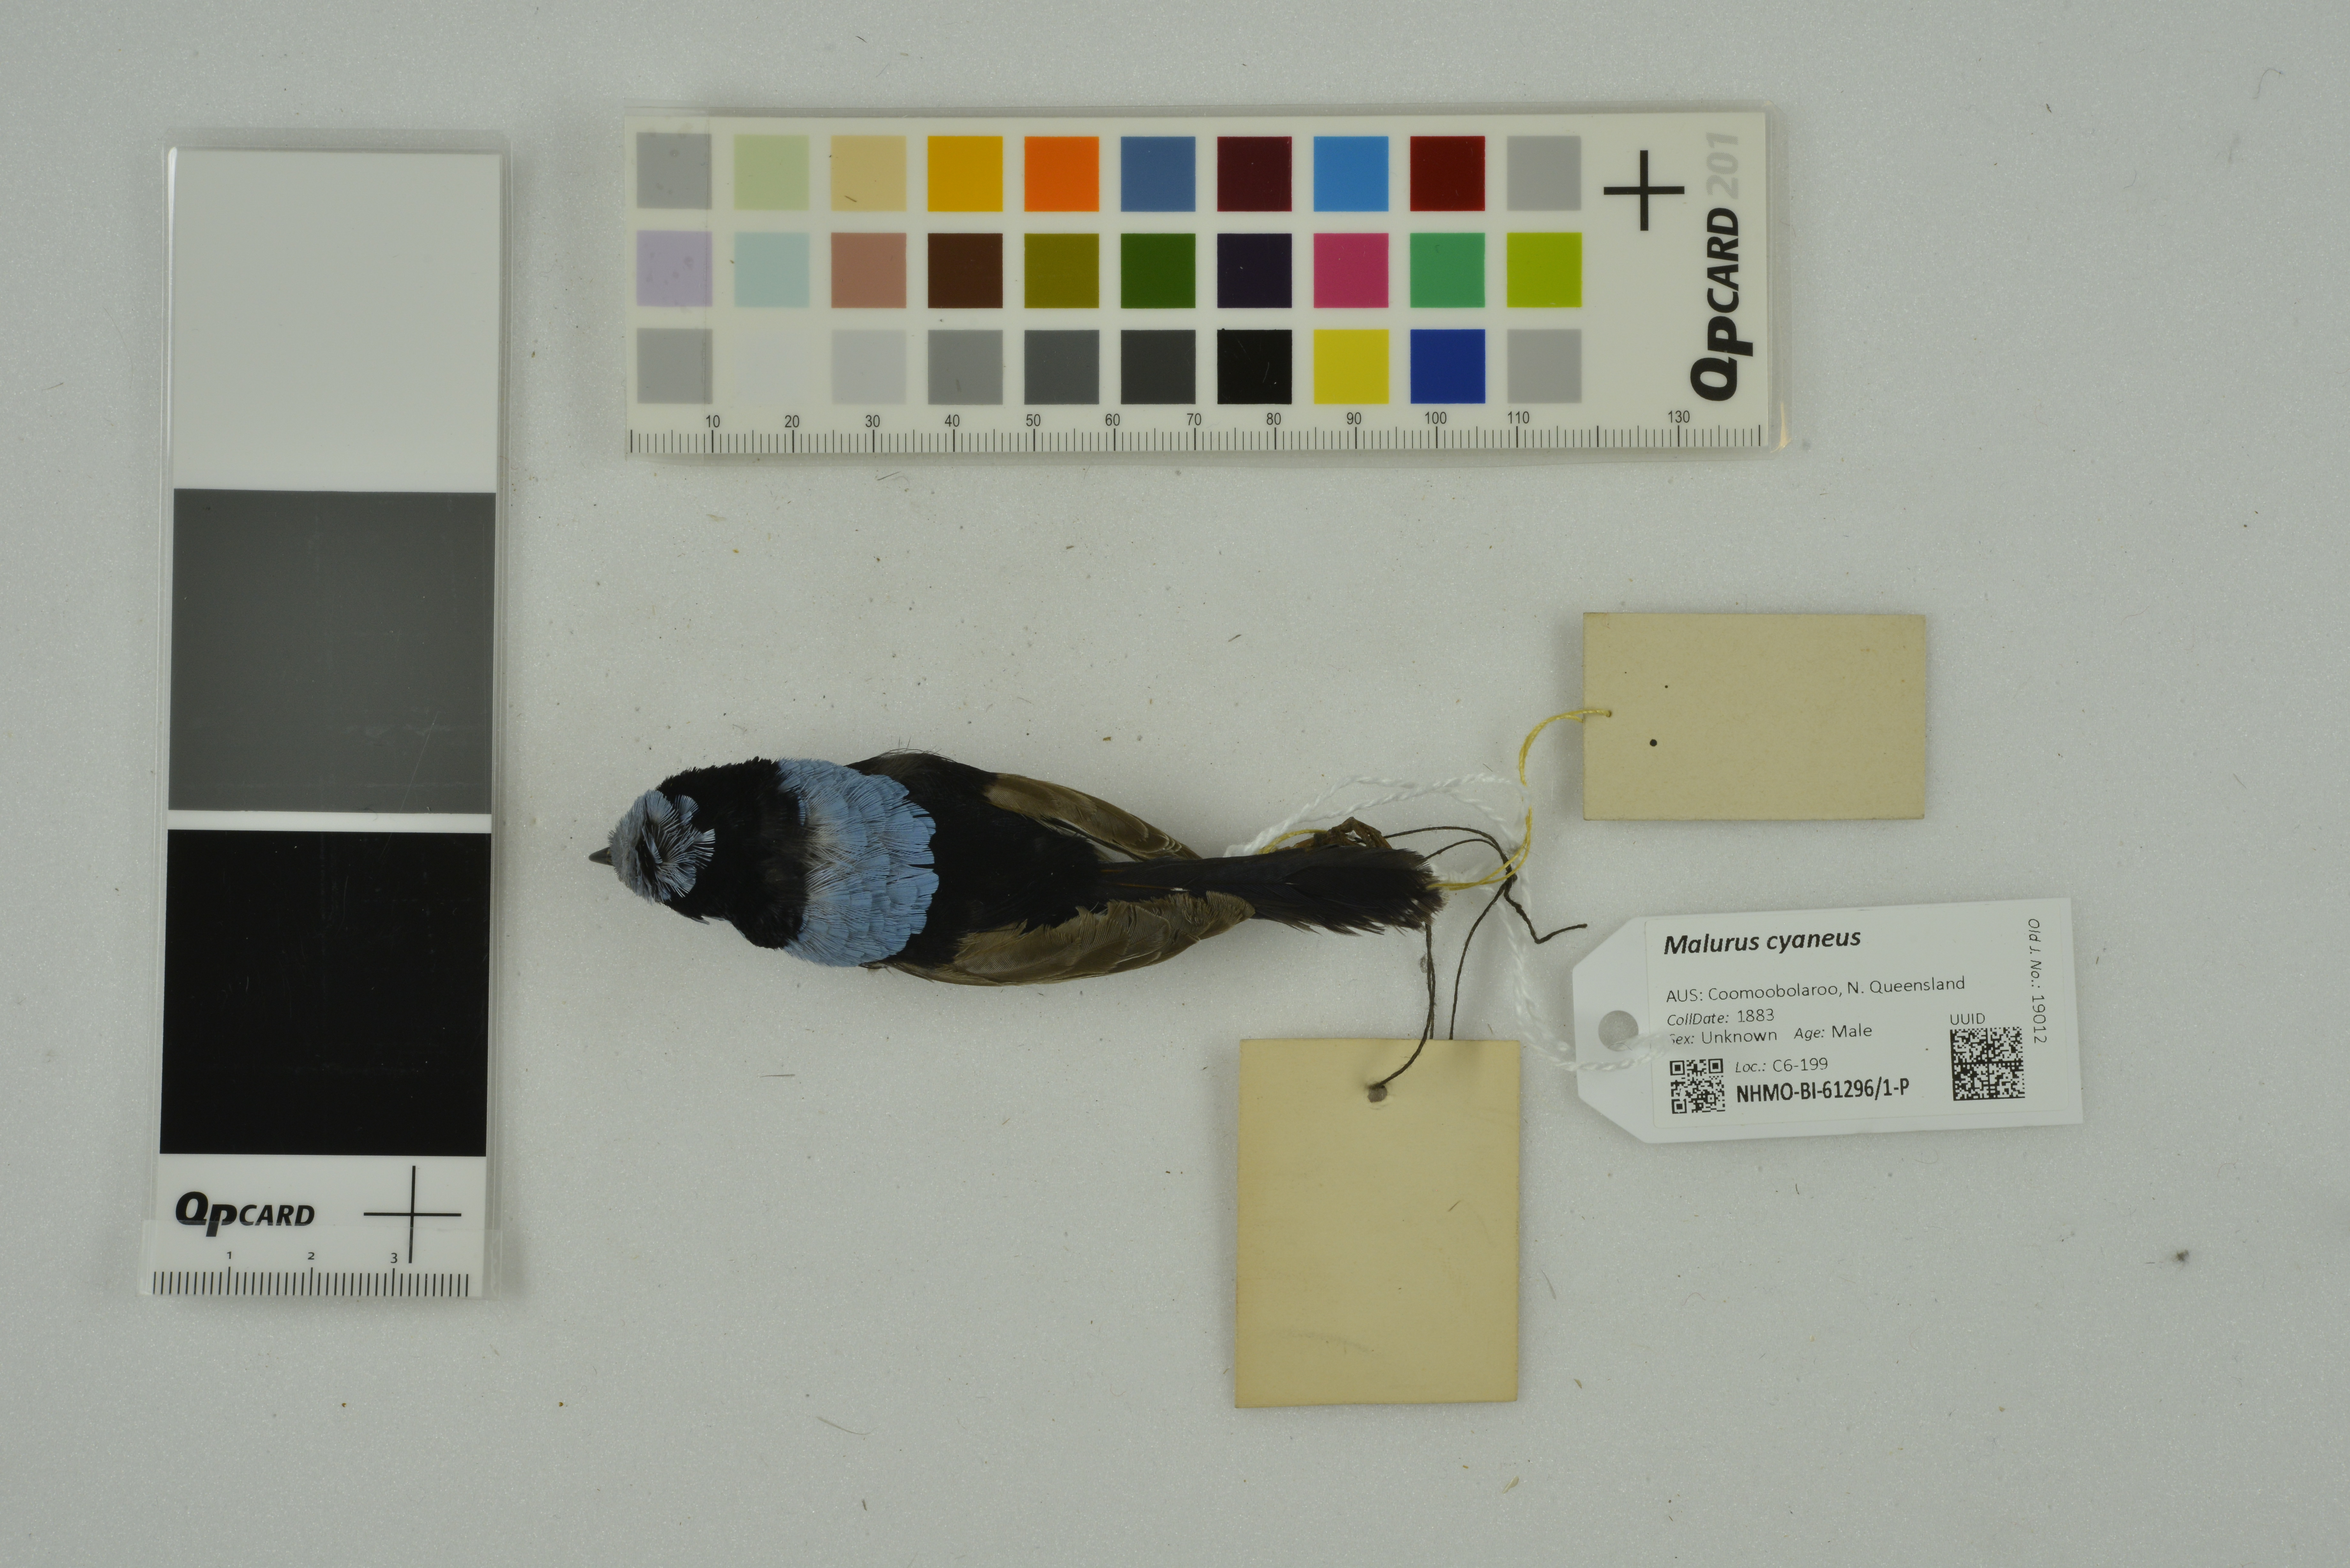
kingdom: Animalia
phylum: Chordata
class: Aves
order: Passeriformes
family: Maluridae
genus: Malurus
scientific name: Malurus cyaneus
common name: Superb fairywren
